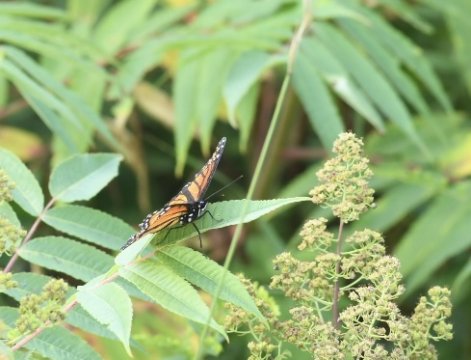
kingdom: Animalia
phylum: Arthropoda
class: Insecta
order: Lepidoptera
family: Nymphalidae
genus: Limenitis
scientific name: Limenitis archippus
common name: Viceroy
